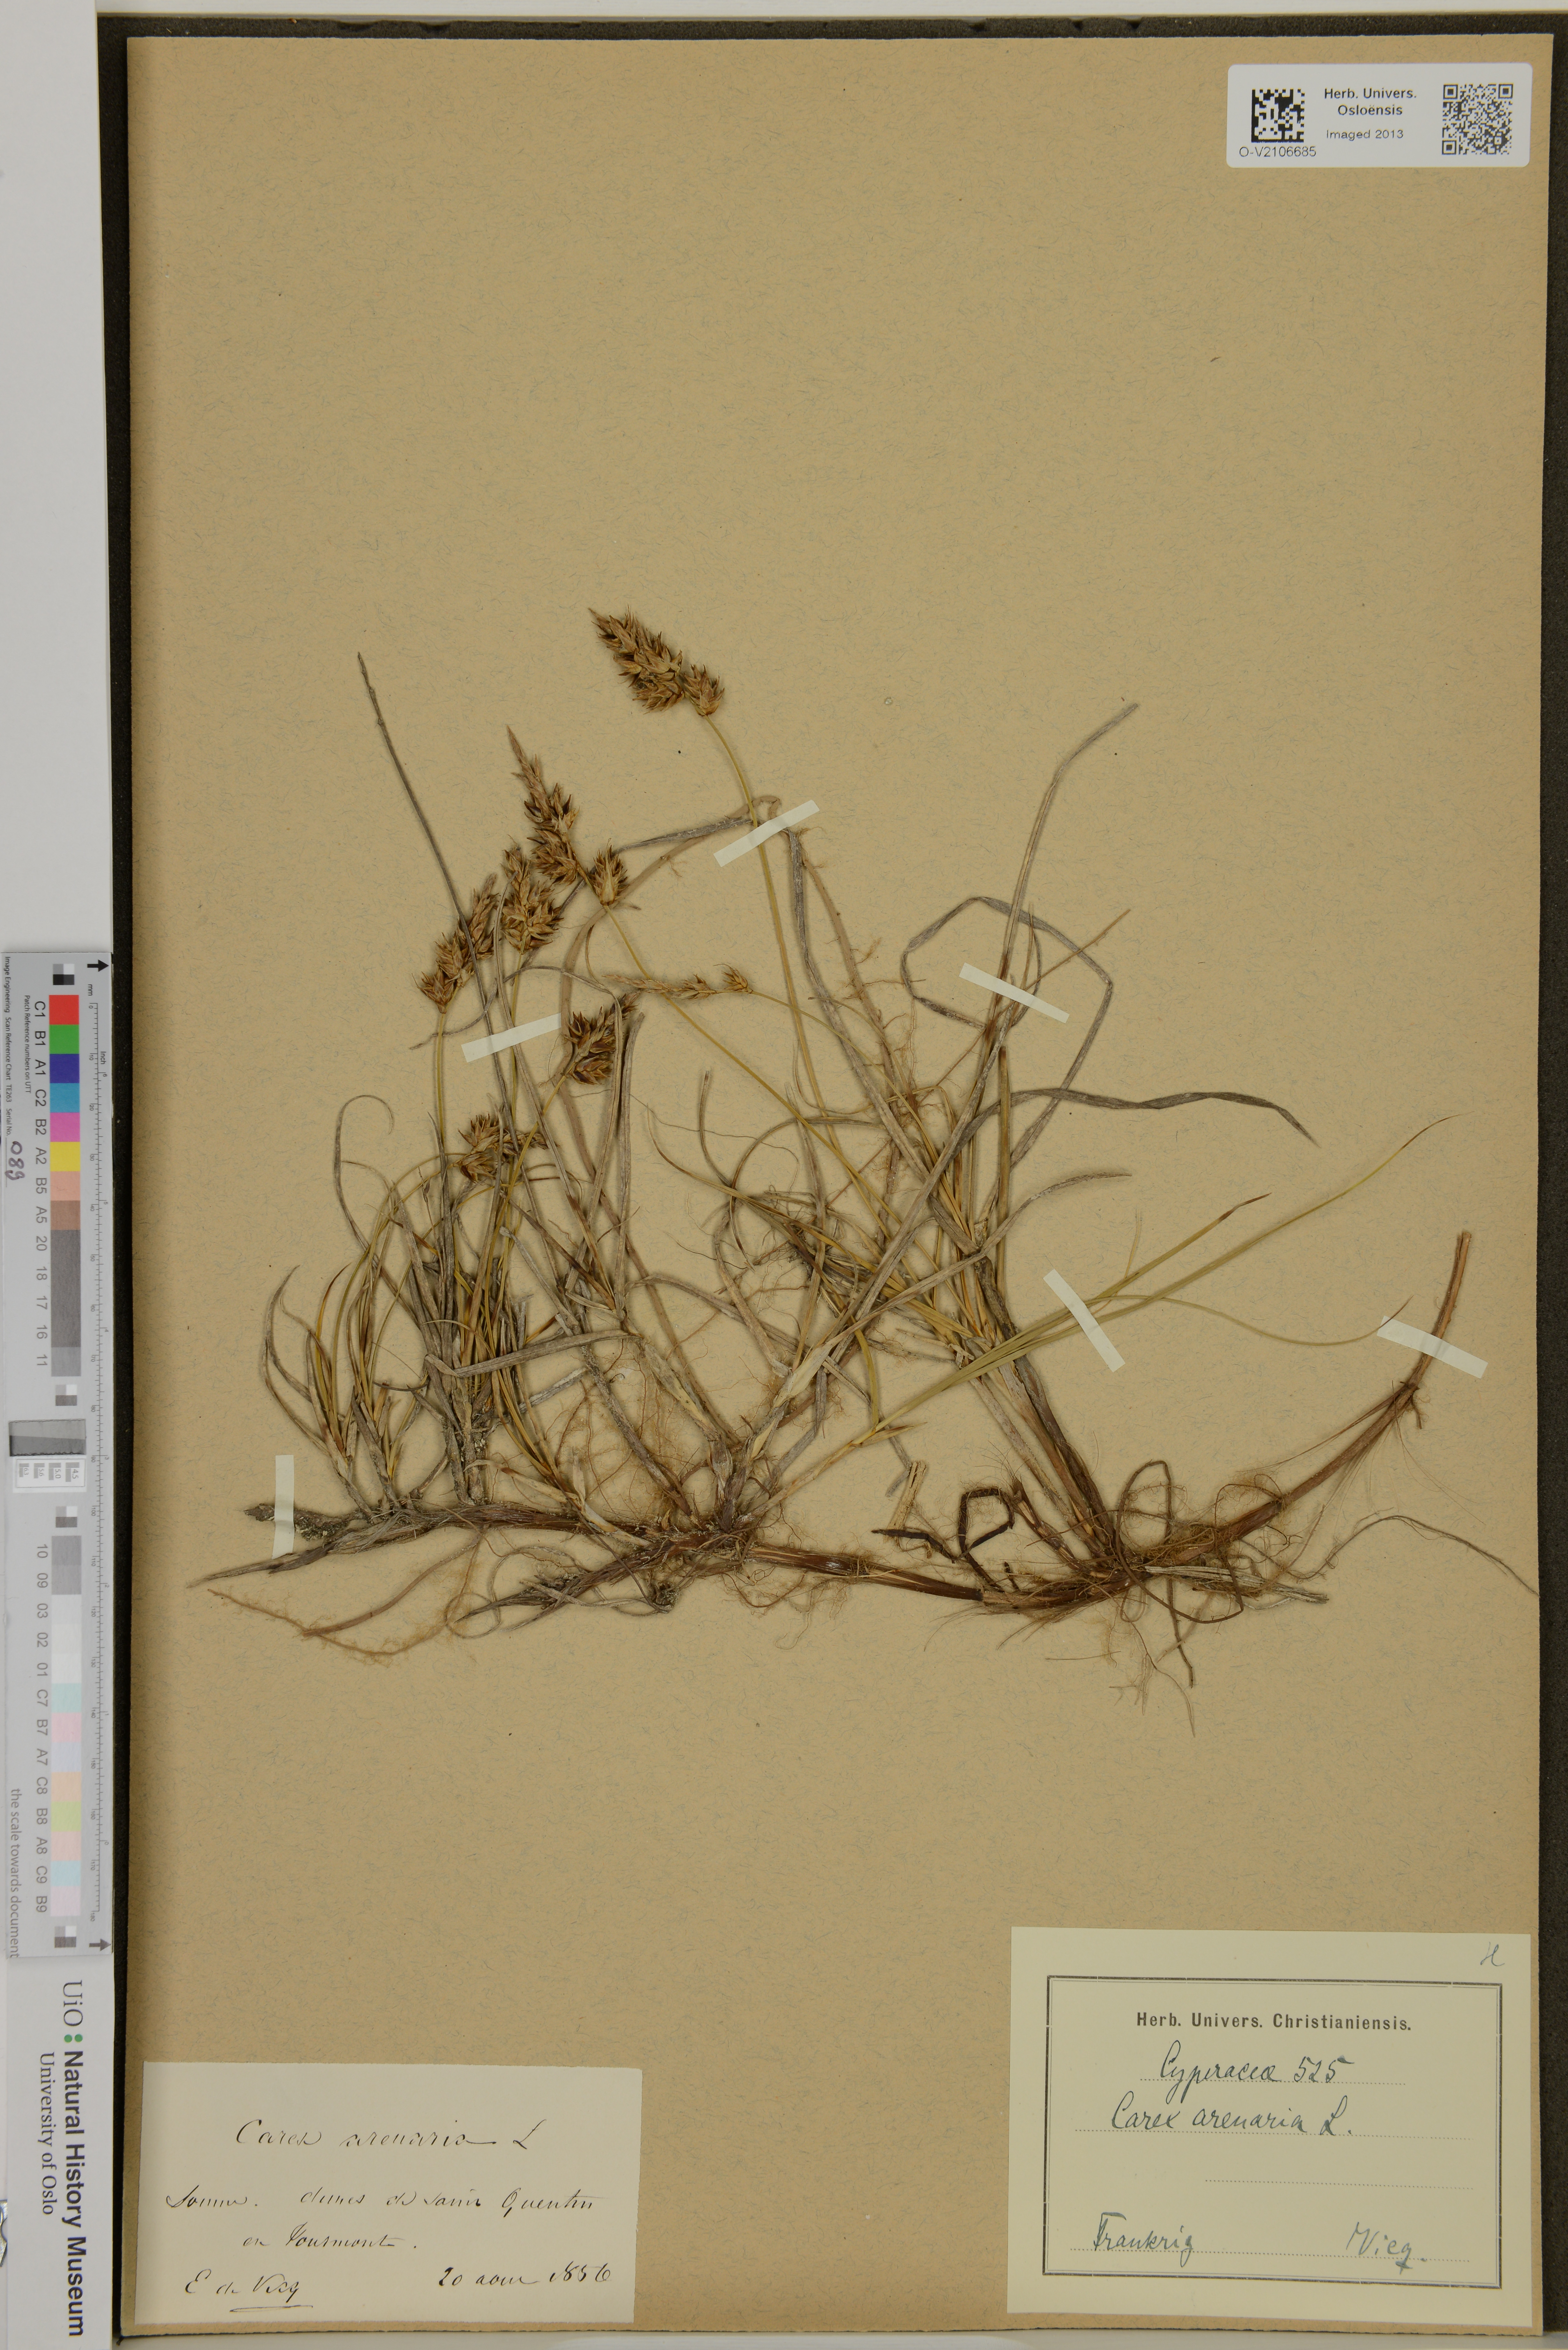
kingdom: Plantae
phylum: Tracheophyta
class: Liliopsida
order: Poales
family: Cyperaceae
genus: Carex
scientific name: Carex arenaria
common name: Sand sedge
